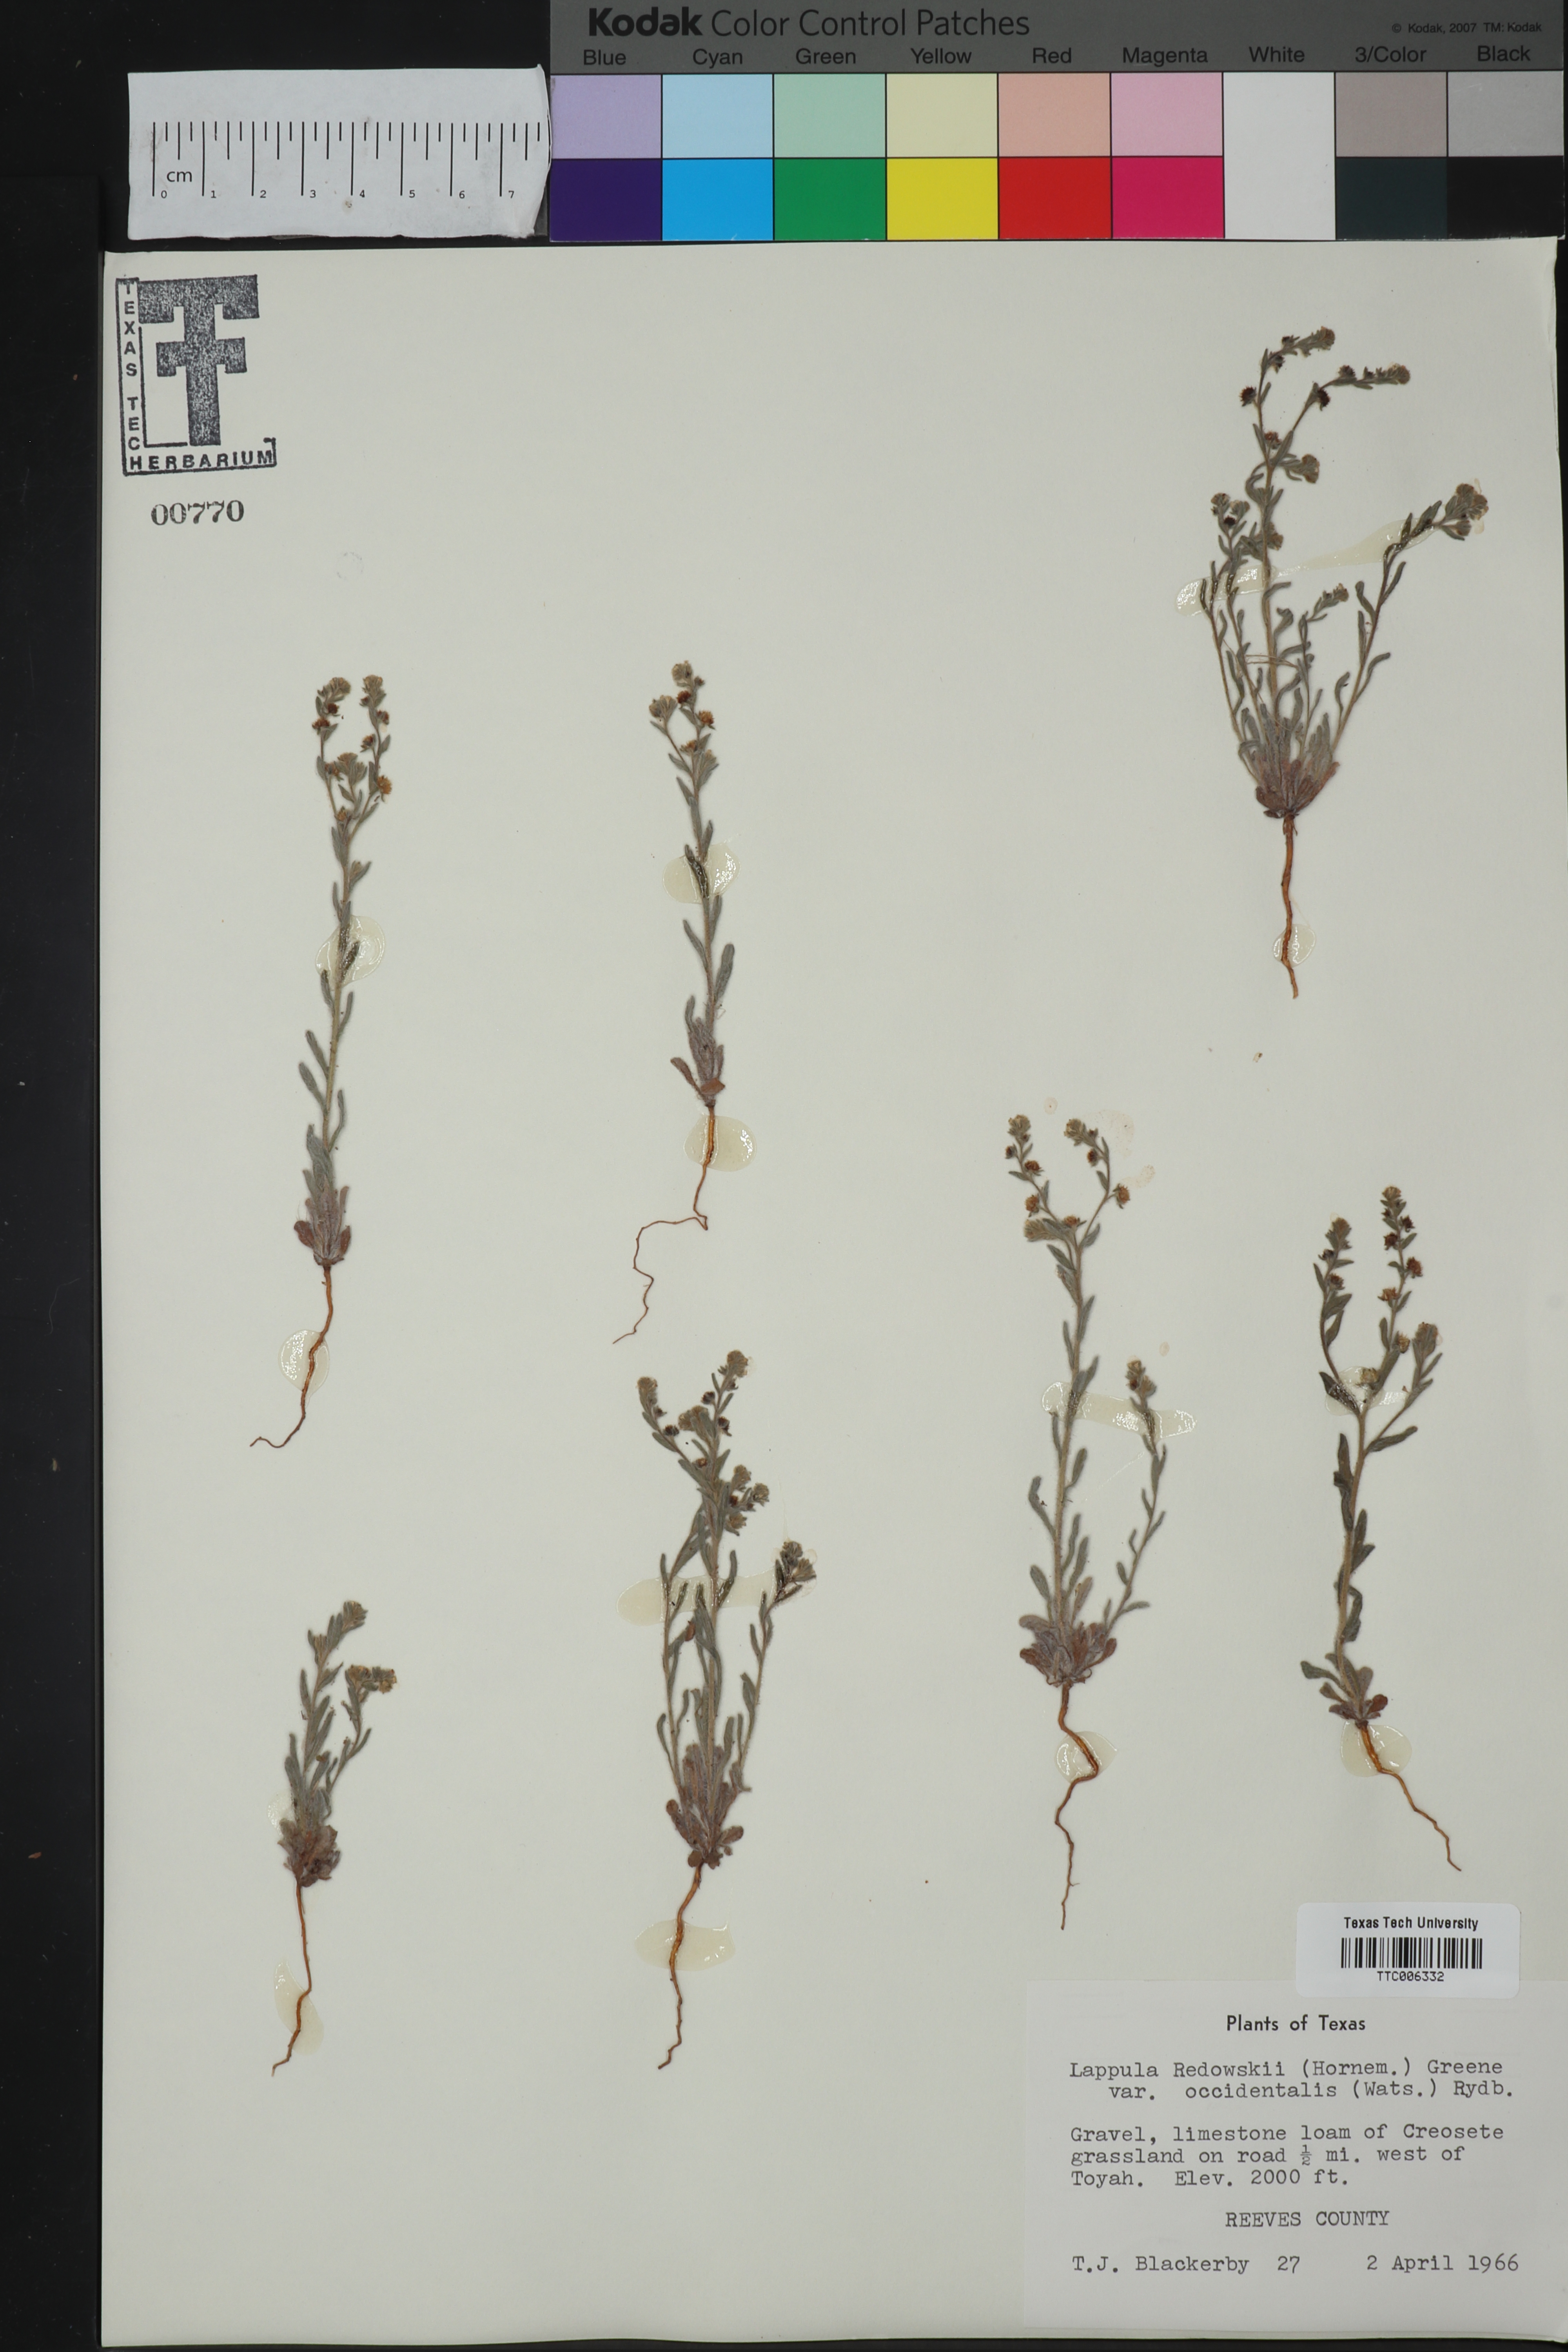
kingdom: Plantae
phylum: Tracheophyta
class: Magnoliopsida
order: Boraginales
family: Boraginaceae
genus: Lappula
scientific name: Lappula occidentalis
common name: Western stickseed
